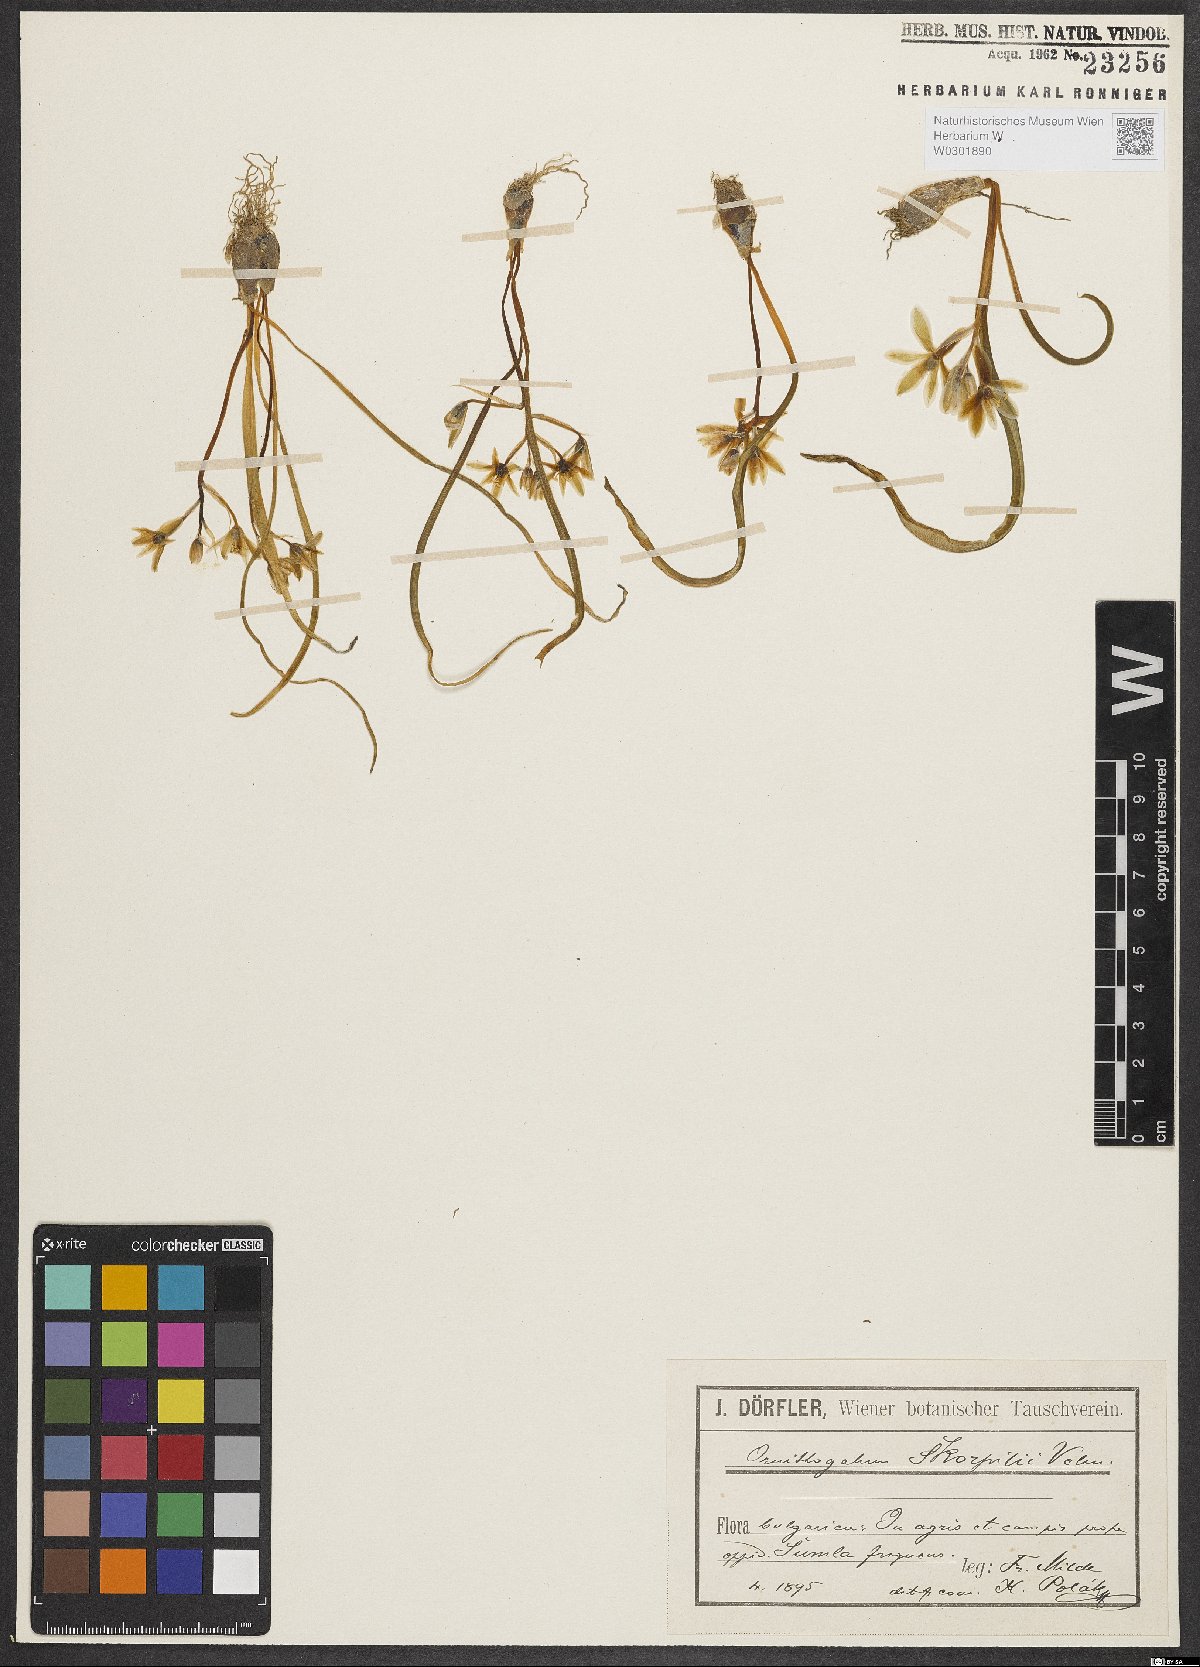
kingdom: Plantae
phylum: Tracheophyta
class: Liliopsida
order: Asparagales
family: Asparagaceae
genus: Ornithogalum
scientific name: Ornithogalum fimbriatum
